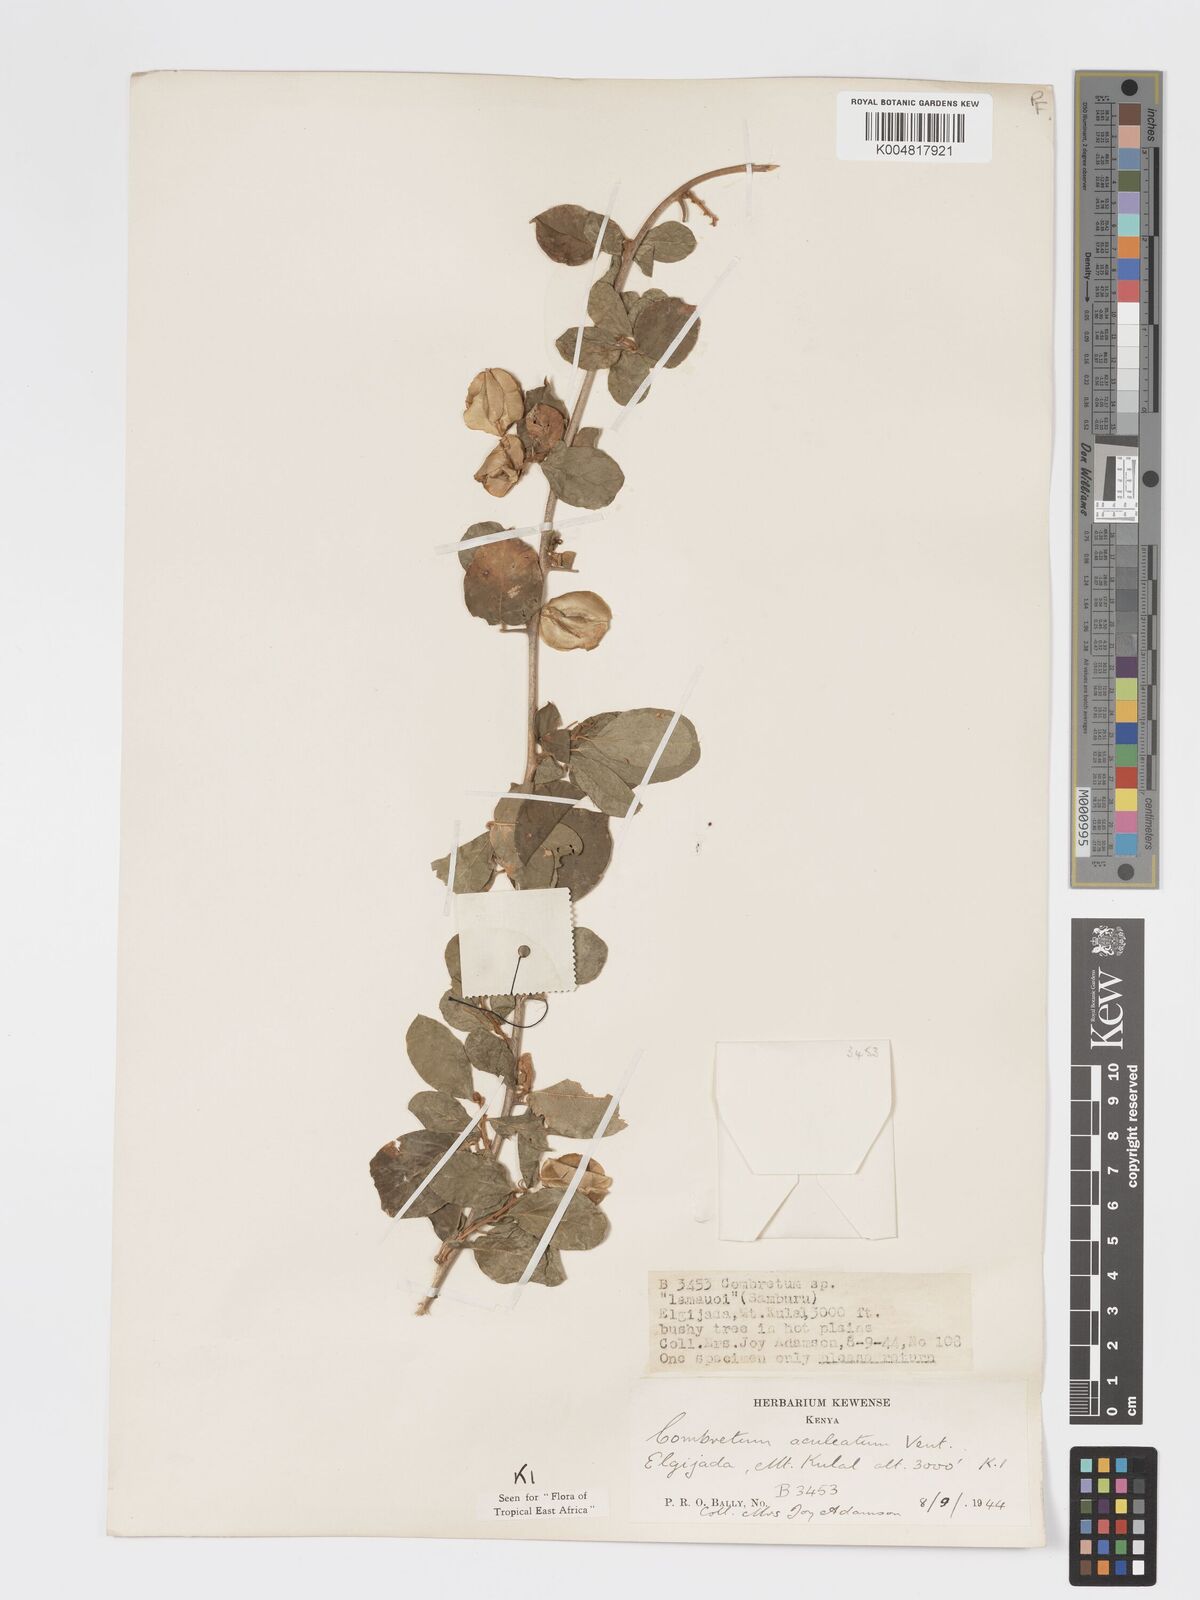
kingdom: Plantae
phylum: Tracheophyta
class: Magnoliopsida
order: Myrtales
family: Combretaceae
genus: Combretum
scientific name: Combretum aculeatum
